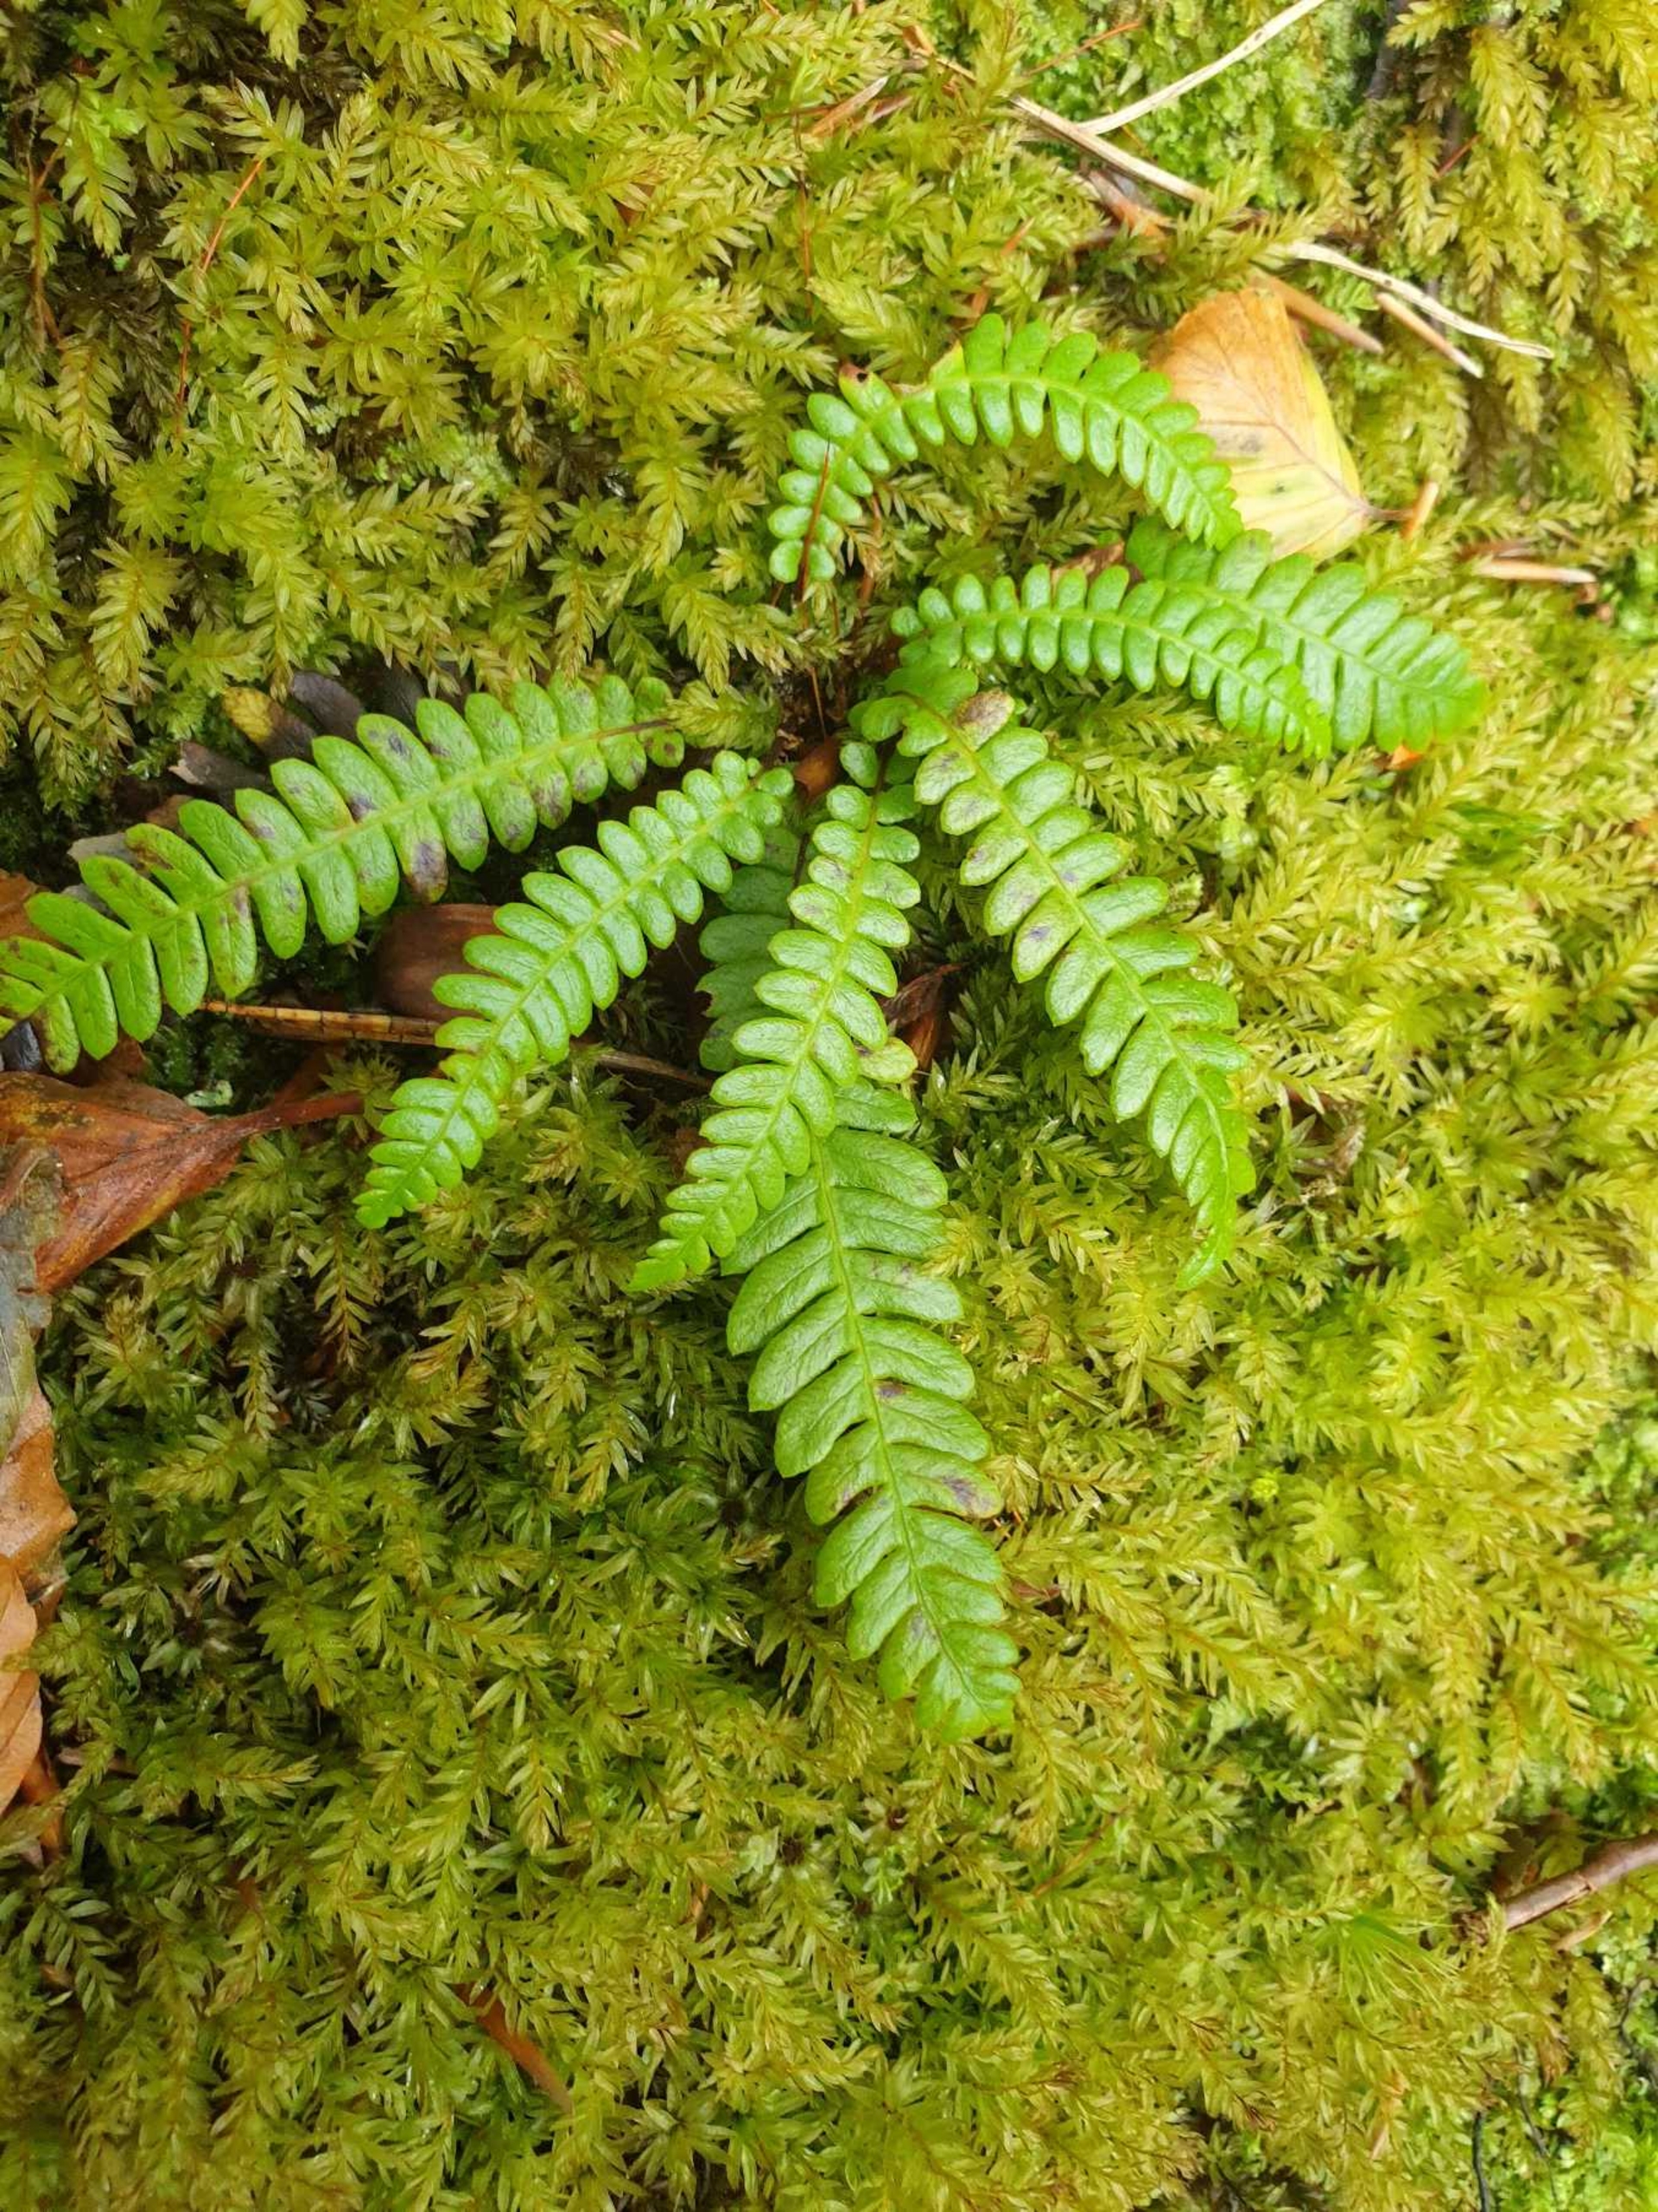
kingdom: Plantae
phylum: Tracheophyta
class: Polypodiopsida
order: Polypodiales
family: Blechnaceae
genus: Struthiopteris
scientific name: Struthiopteris spicant
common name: Kambregne
